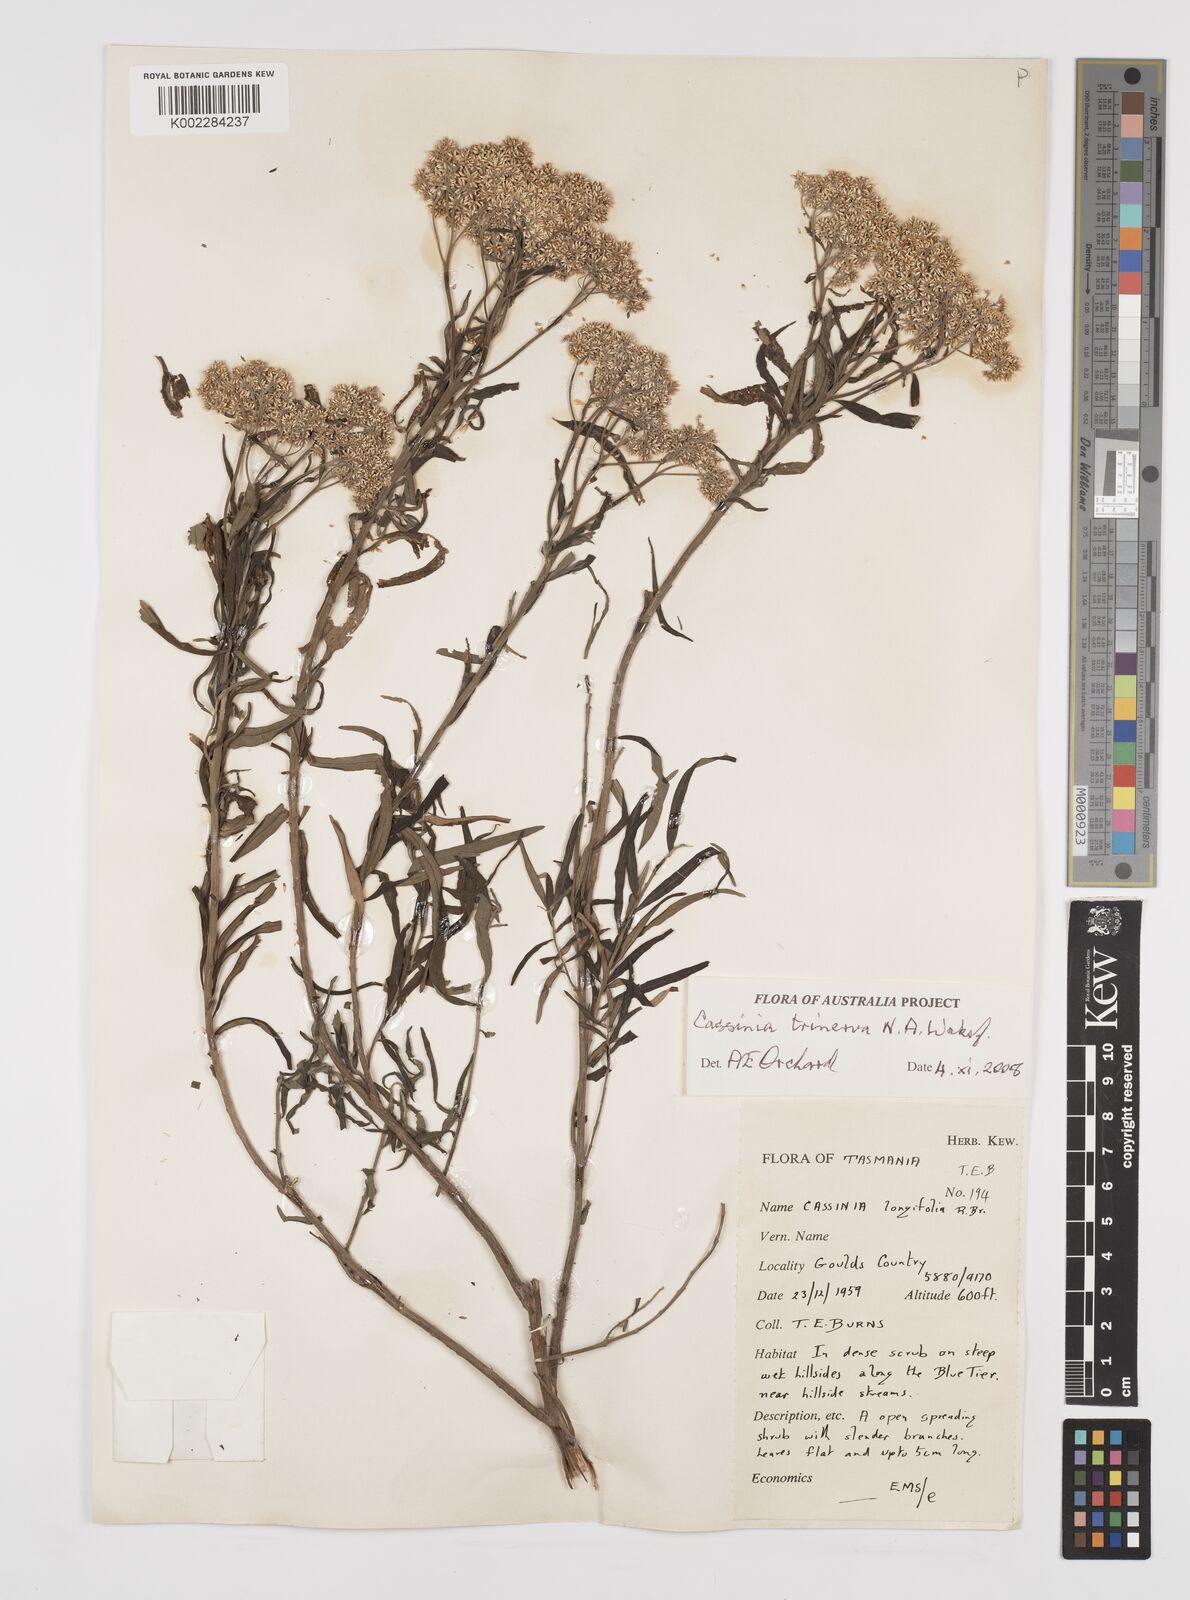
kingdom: Plantae
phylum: Tracheophyta
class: Magnoliopsida
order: Asterales
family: Asteraceae
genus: Cassinia
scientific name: Cassinia trinerva
